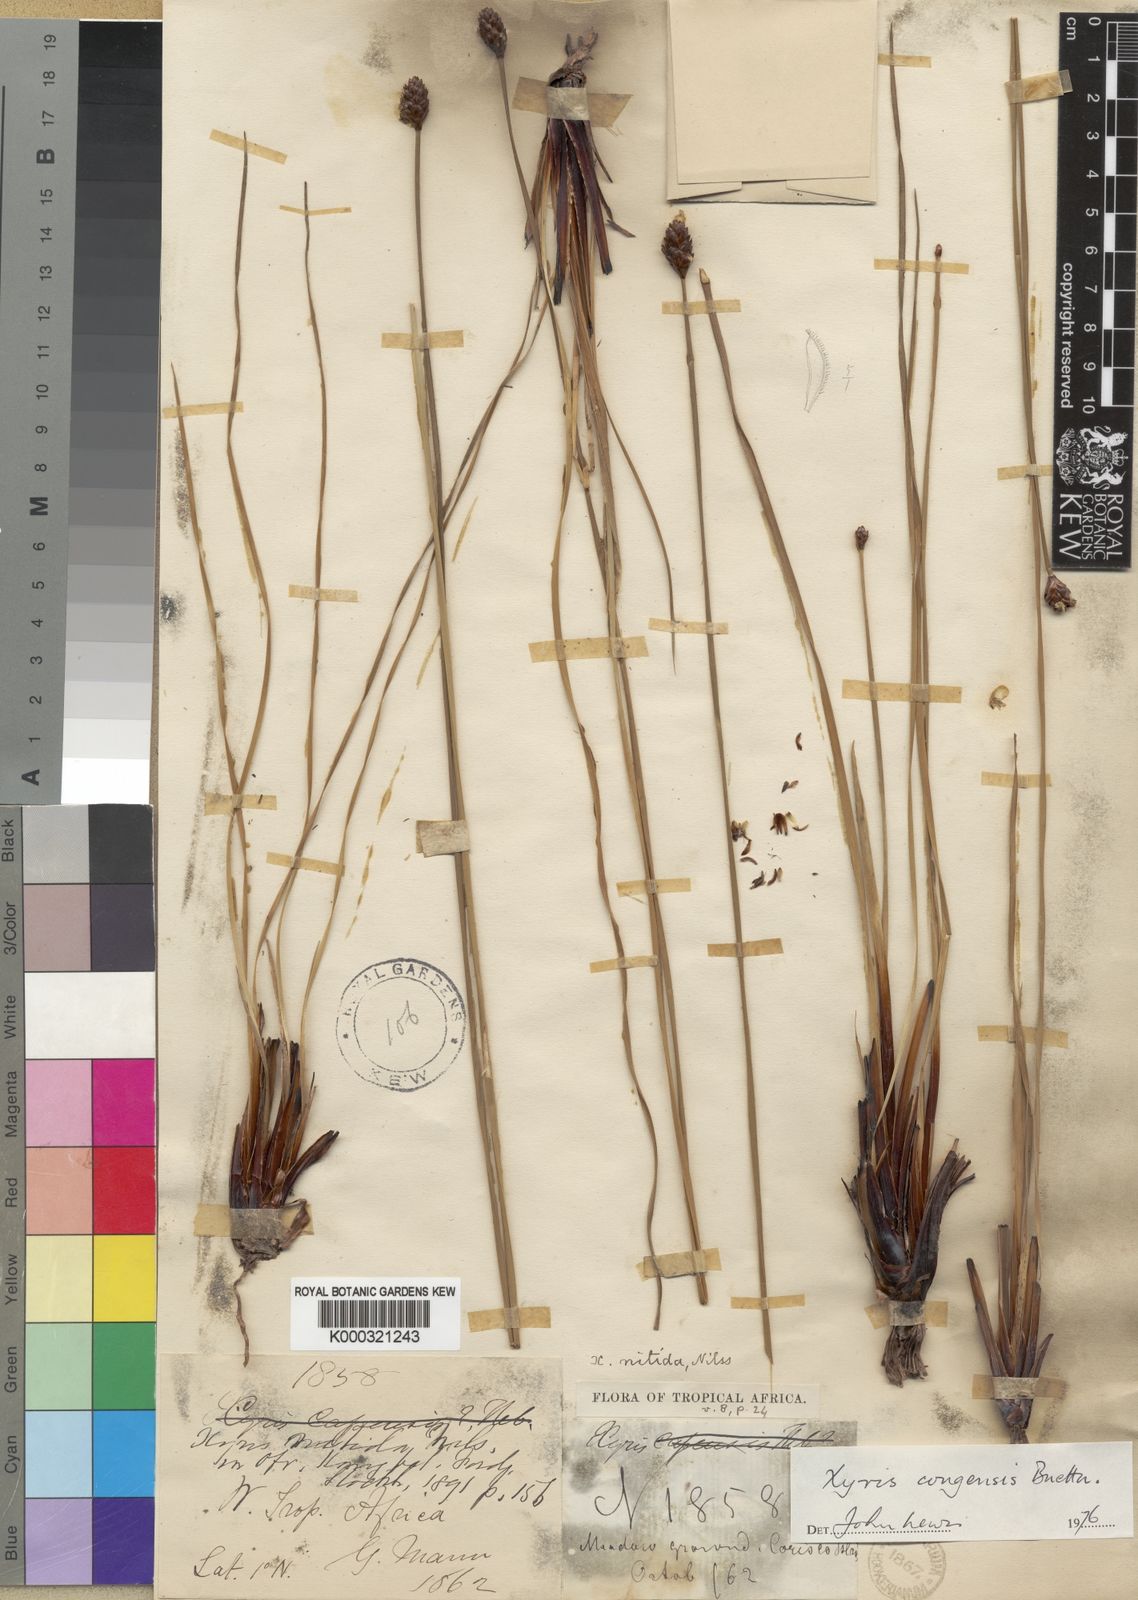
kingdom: Plantae
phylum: Tracheophyta
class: Liliopsida
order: Poales
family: Xyridaceae
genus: Xyris
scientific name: Xyris
